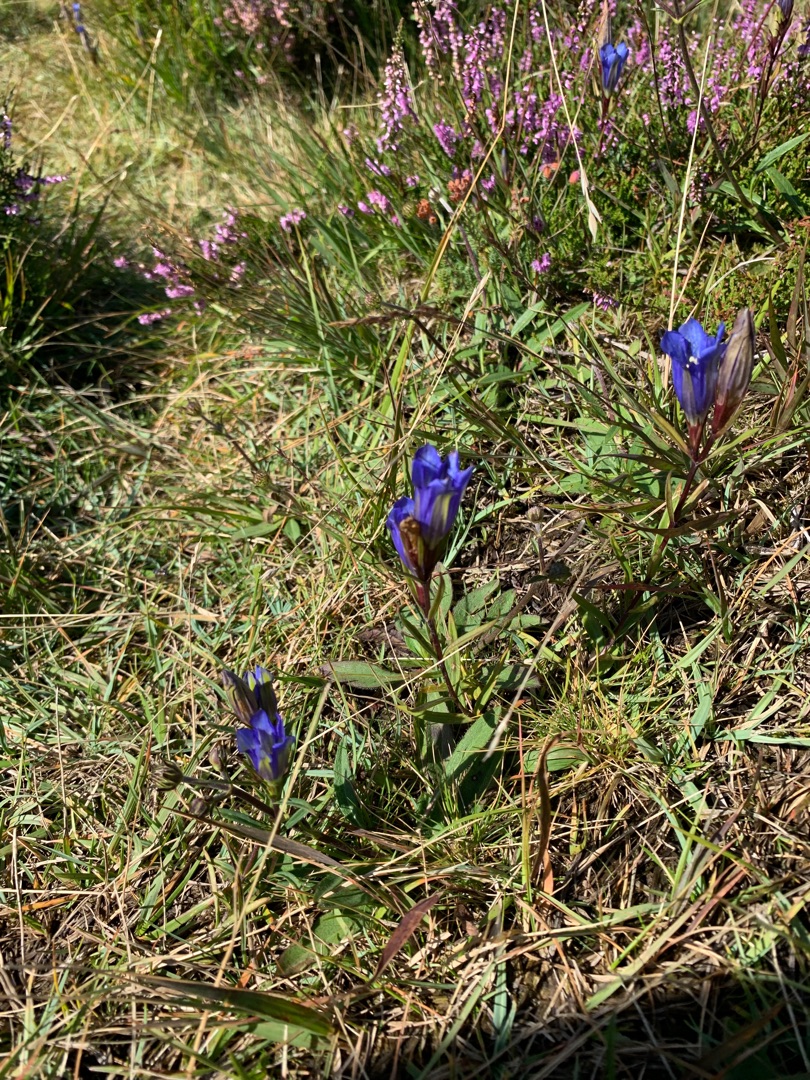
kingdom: Plantae
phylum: Tracheophyta
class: Magnoliopsida
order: Gentianales
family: Gentianaceae
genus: Gentiana
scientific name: Gentiana pneumonanthe
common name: Klokke-ensian
